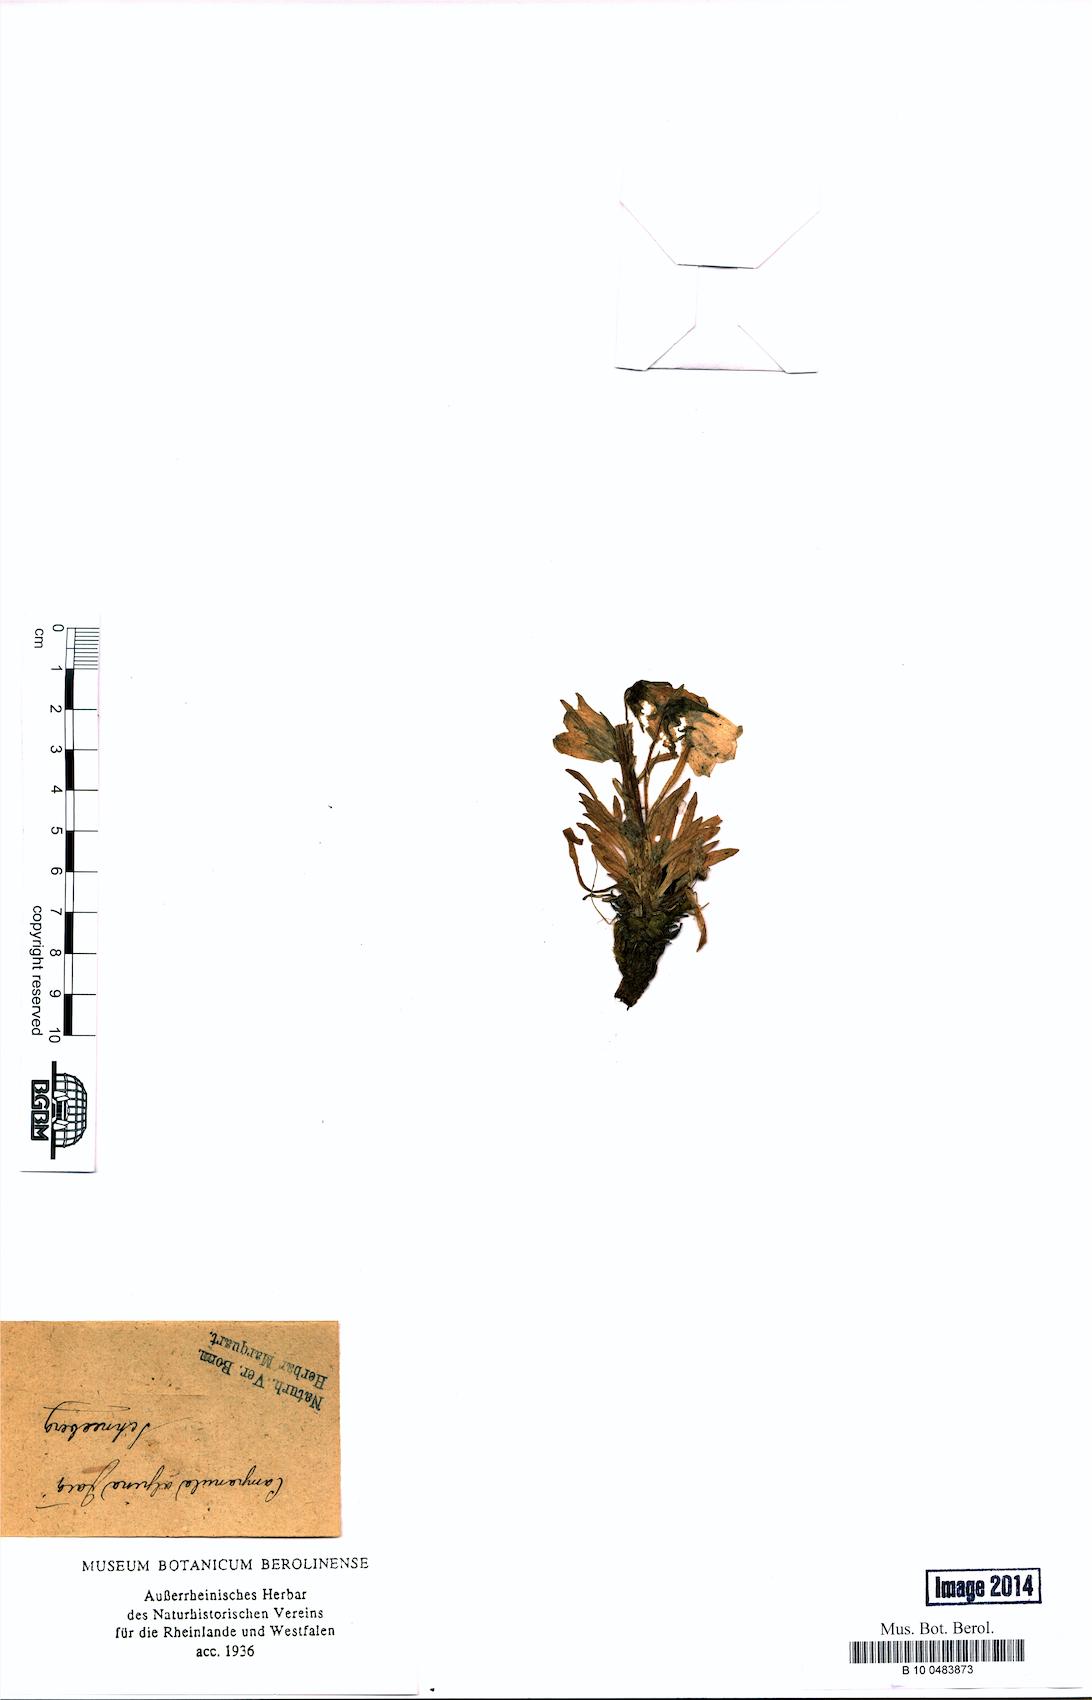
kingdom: Plantae
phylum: Tracheophyta
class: Magnoliopsida
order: Asterales
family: Campanulaceae
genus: Campanula
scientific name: Campanula alpina
